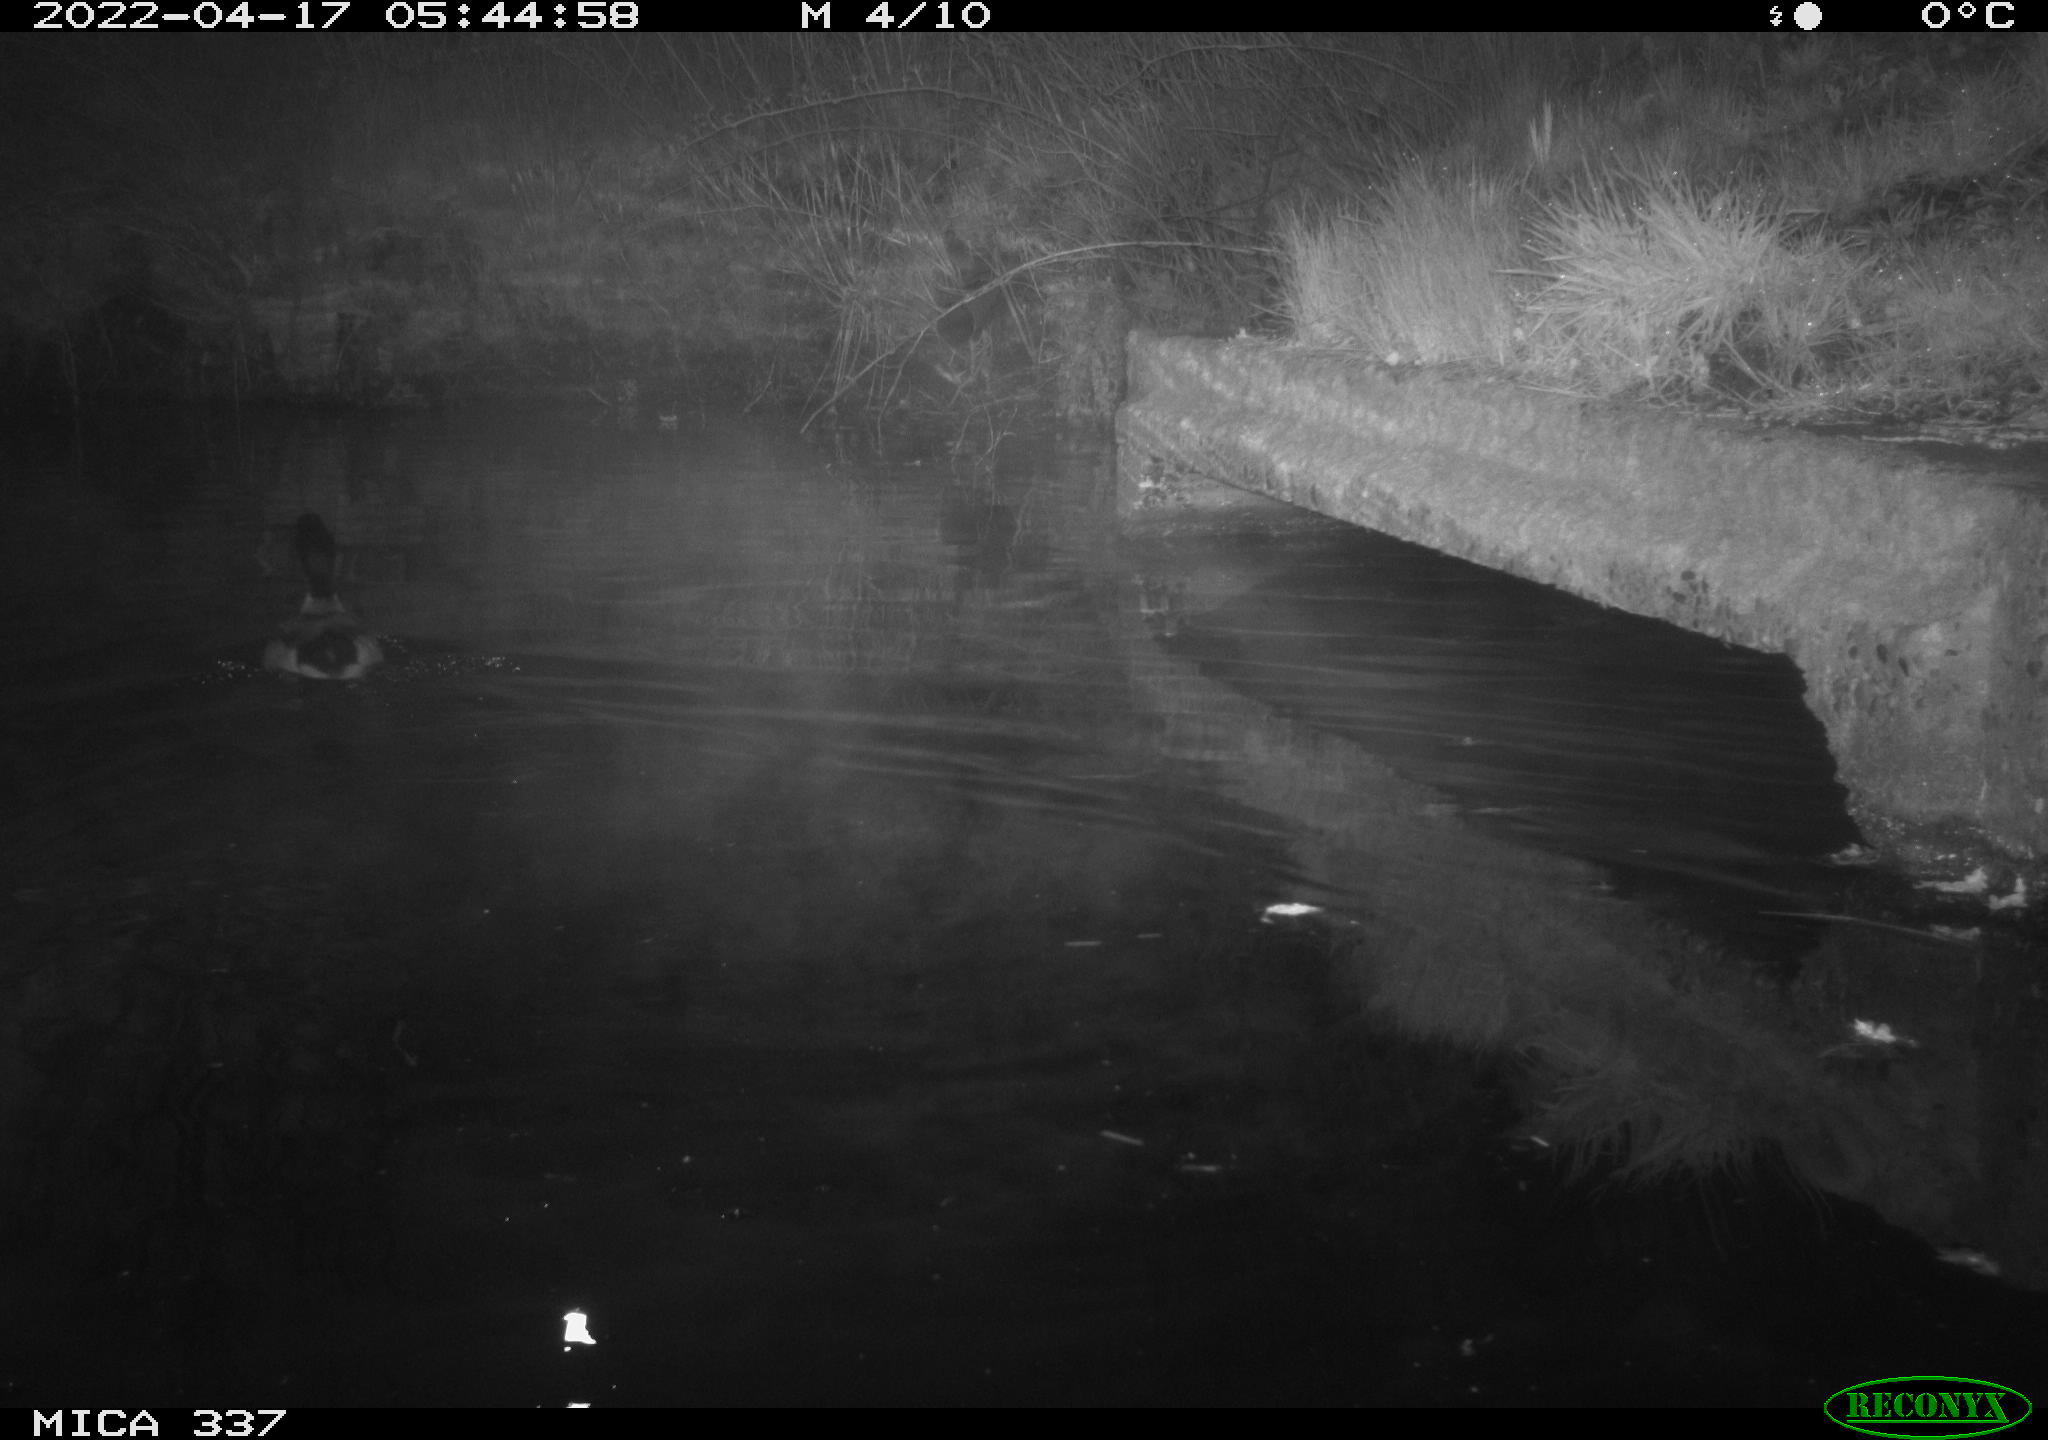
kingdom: Animalia
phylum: Chordata
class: Aves
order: Anseriformes
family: Anatidae
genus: Anas
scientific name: Anas platyrhynchos
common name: Mallard
